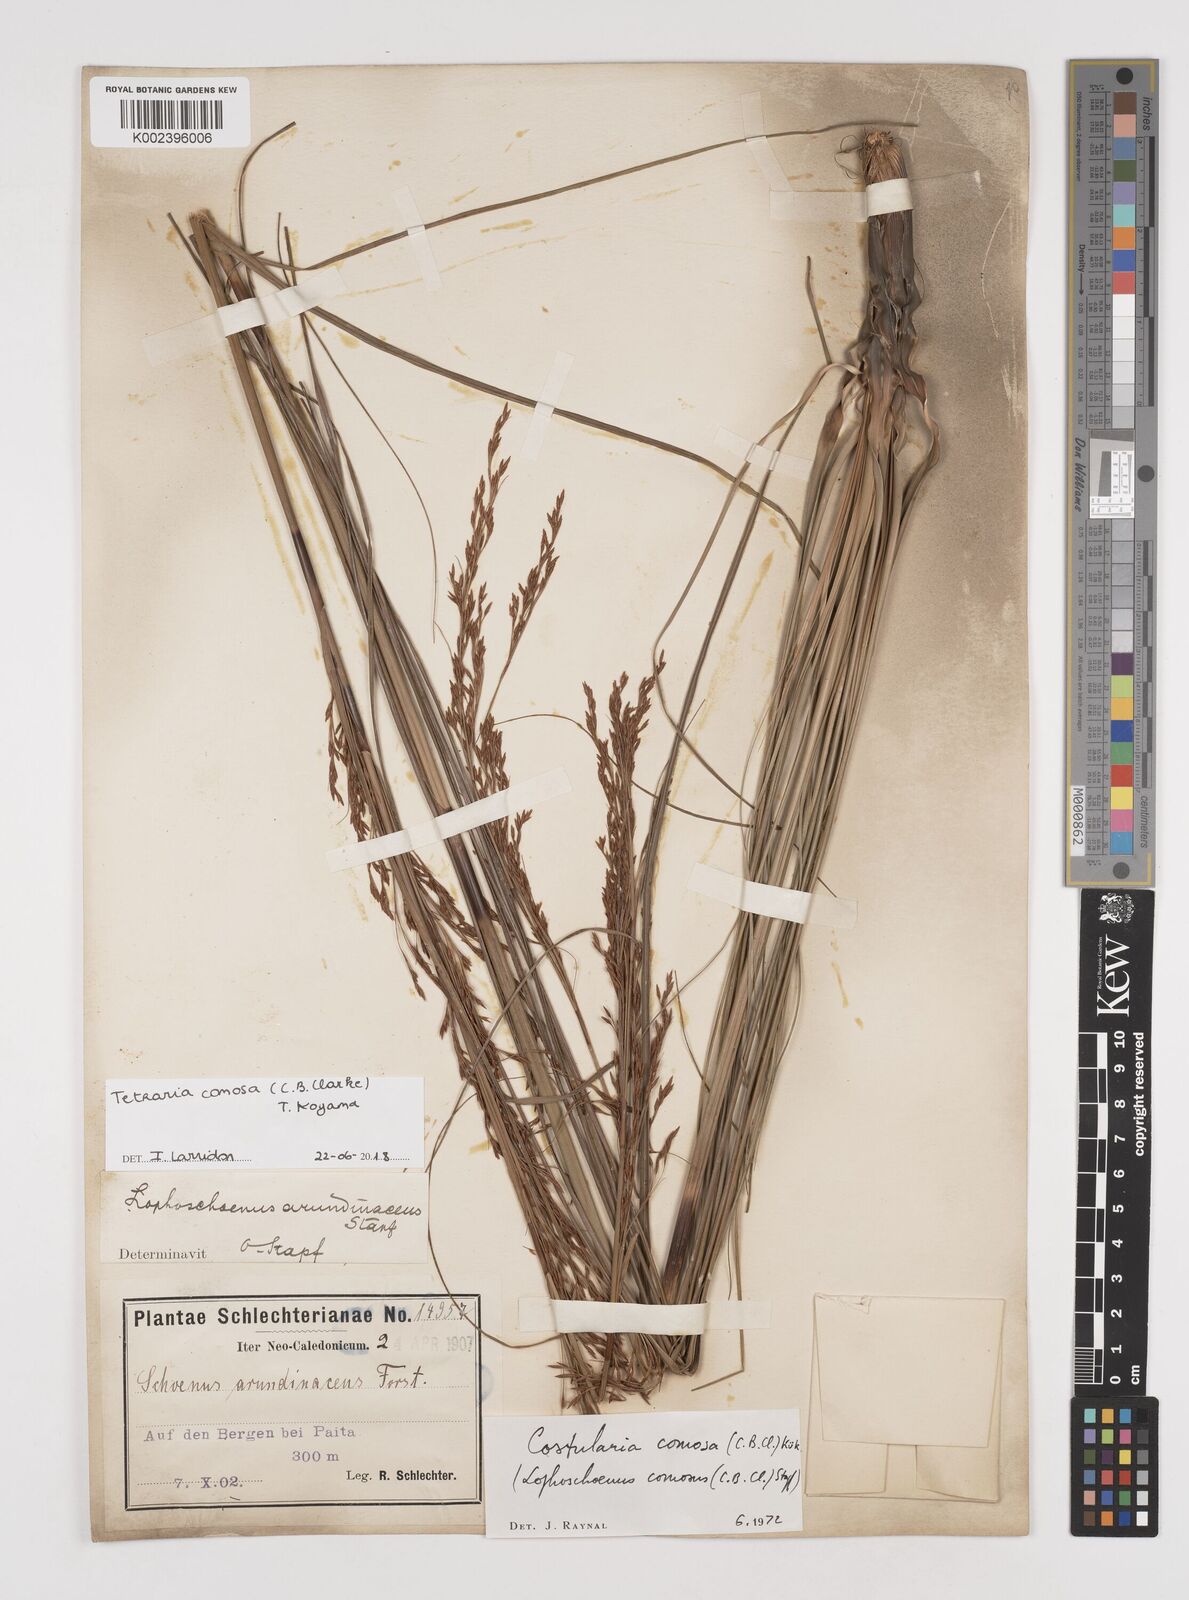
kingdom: Plantae
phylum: Tracheophyta
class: Liliopsida
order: Poales
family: Cyperaceae
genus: Tetraria
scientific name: Tetraria comosa
